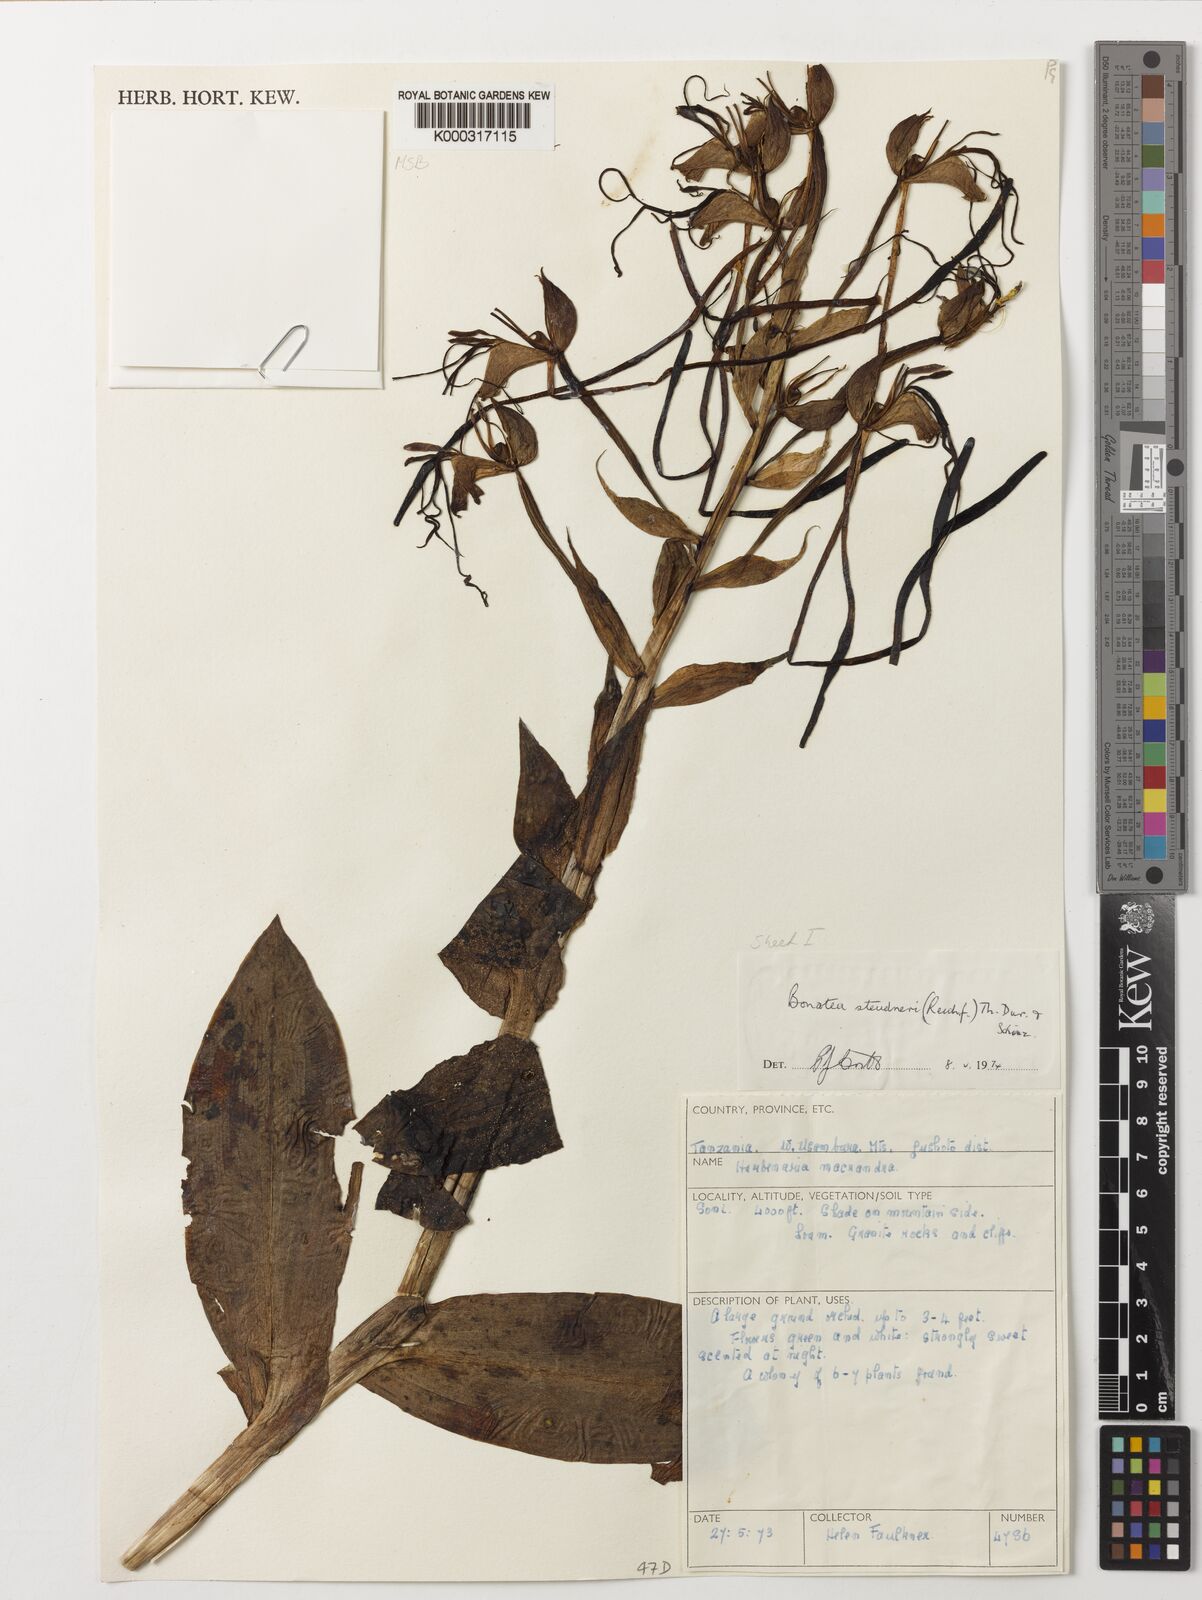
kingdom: Plantae
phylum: Tracheophyta
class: Liliopsida
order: Asparagales
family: Orchidaceae
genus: Bonatea
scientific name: Bonatea steudneri
